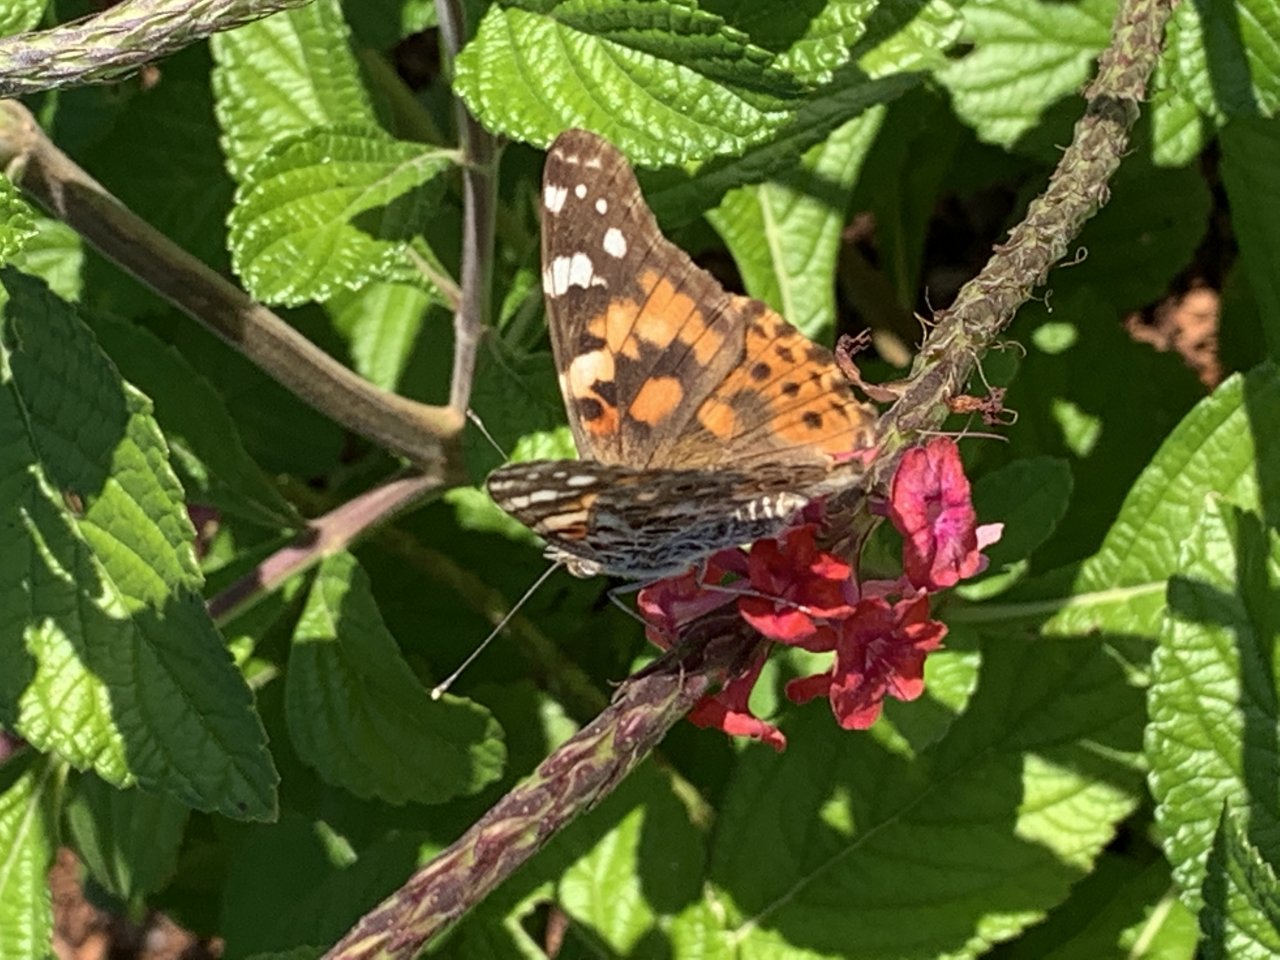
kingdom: Animalia
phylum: Arthropoda
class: Insecta
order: Lepidoptera
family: Nymphalidae
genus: Vanessa
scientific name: Vanessa cardui
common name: Painted Lady
